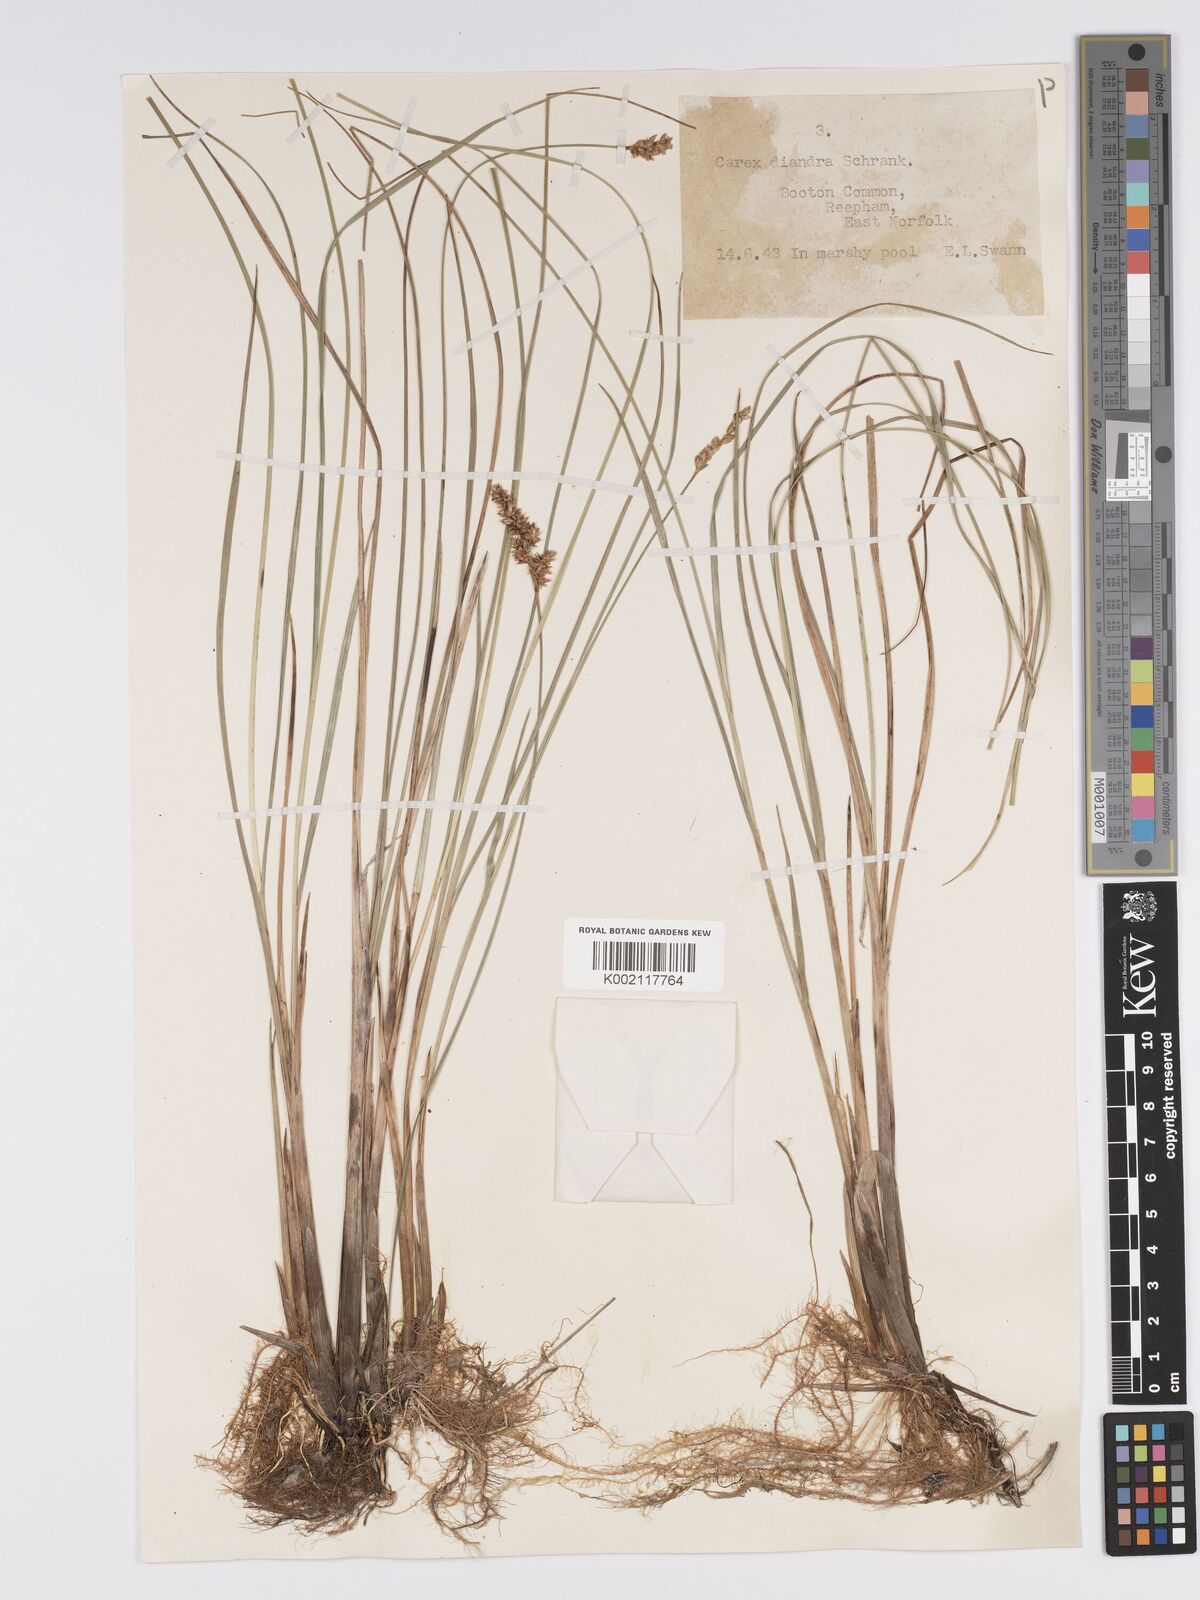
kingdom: Plantae
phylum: Tracheophyta
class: Liliopsida
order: Poales
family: Cyperaceae
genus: Carex
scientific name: Carex diandra
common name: Lesser tussock-sedge
